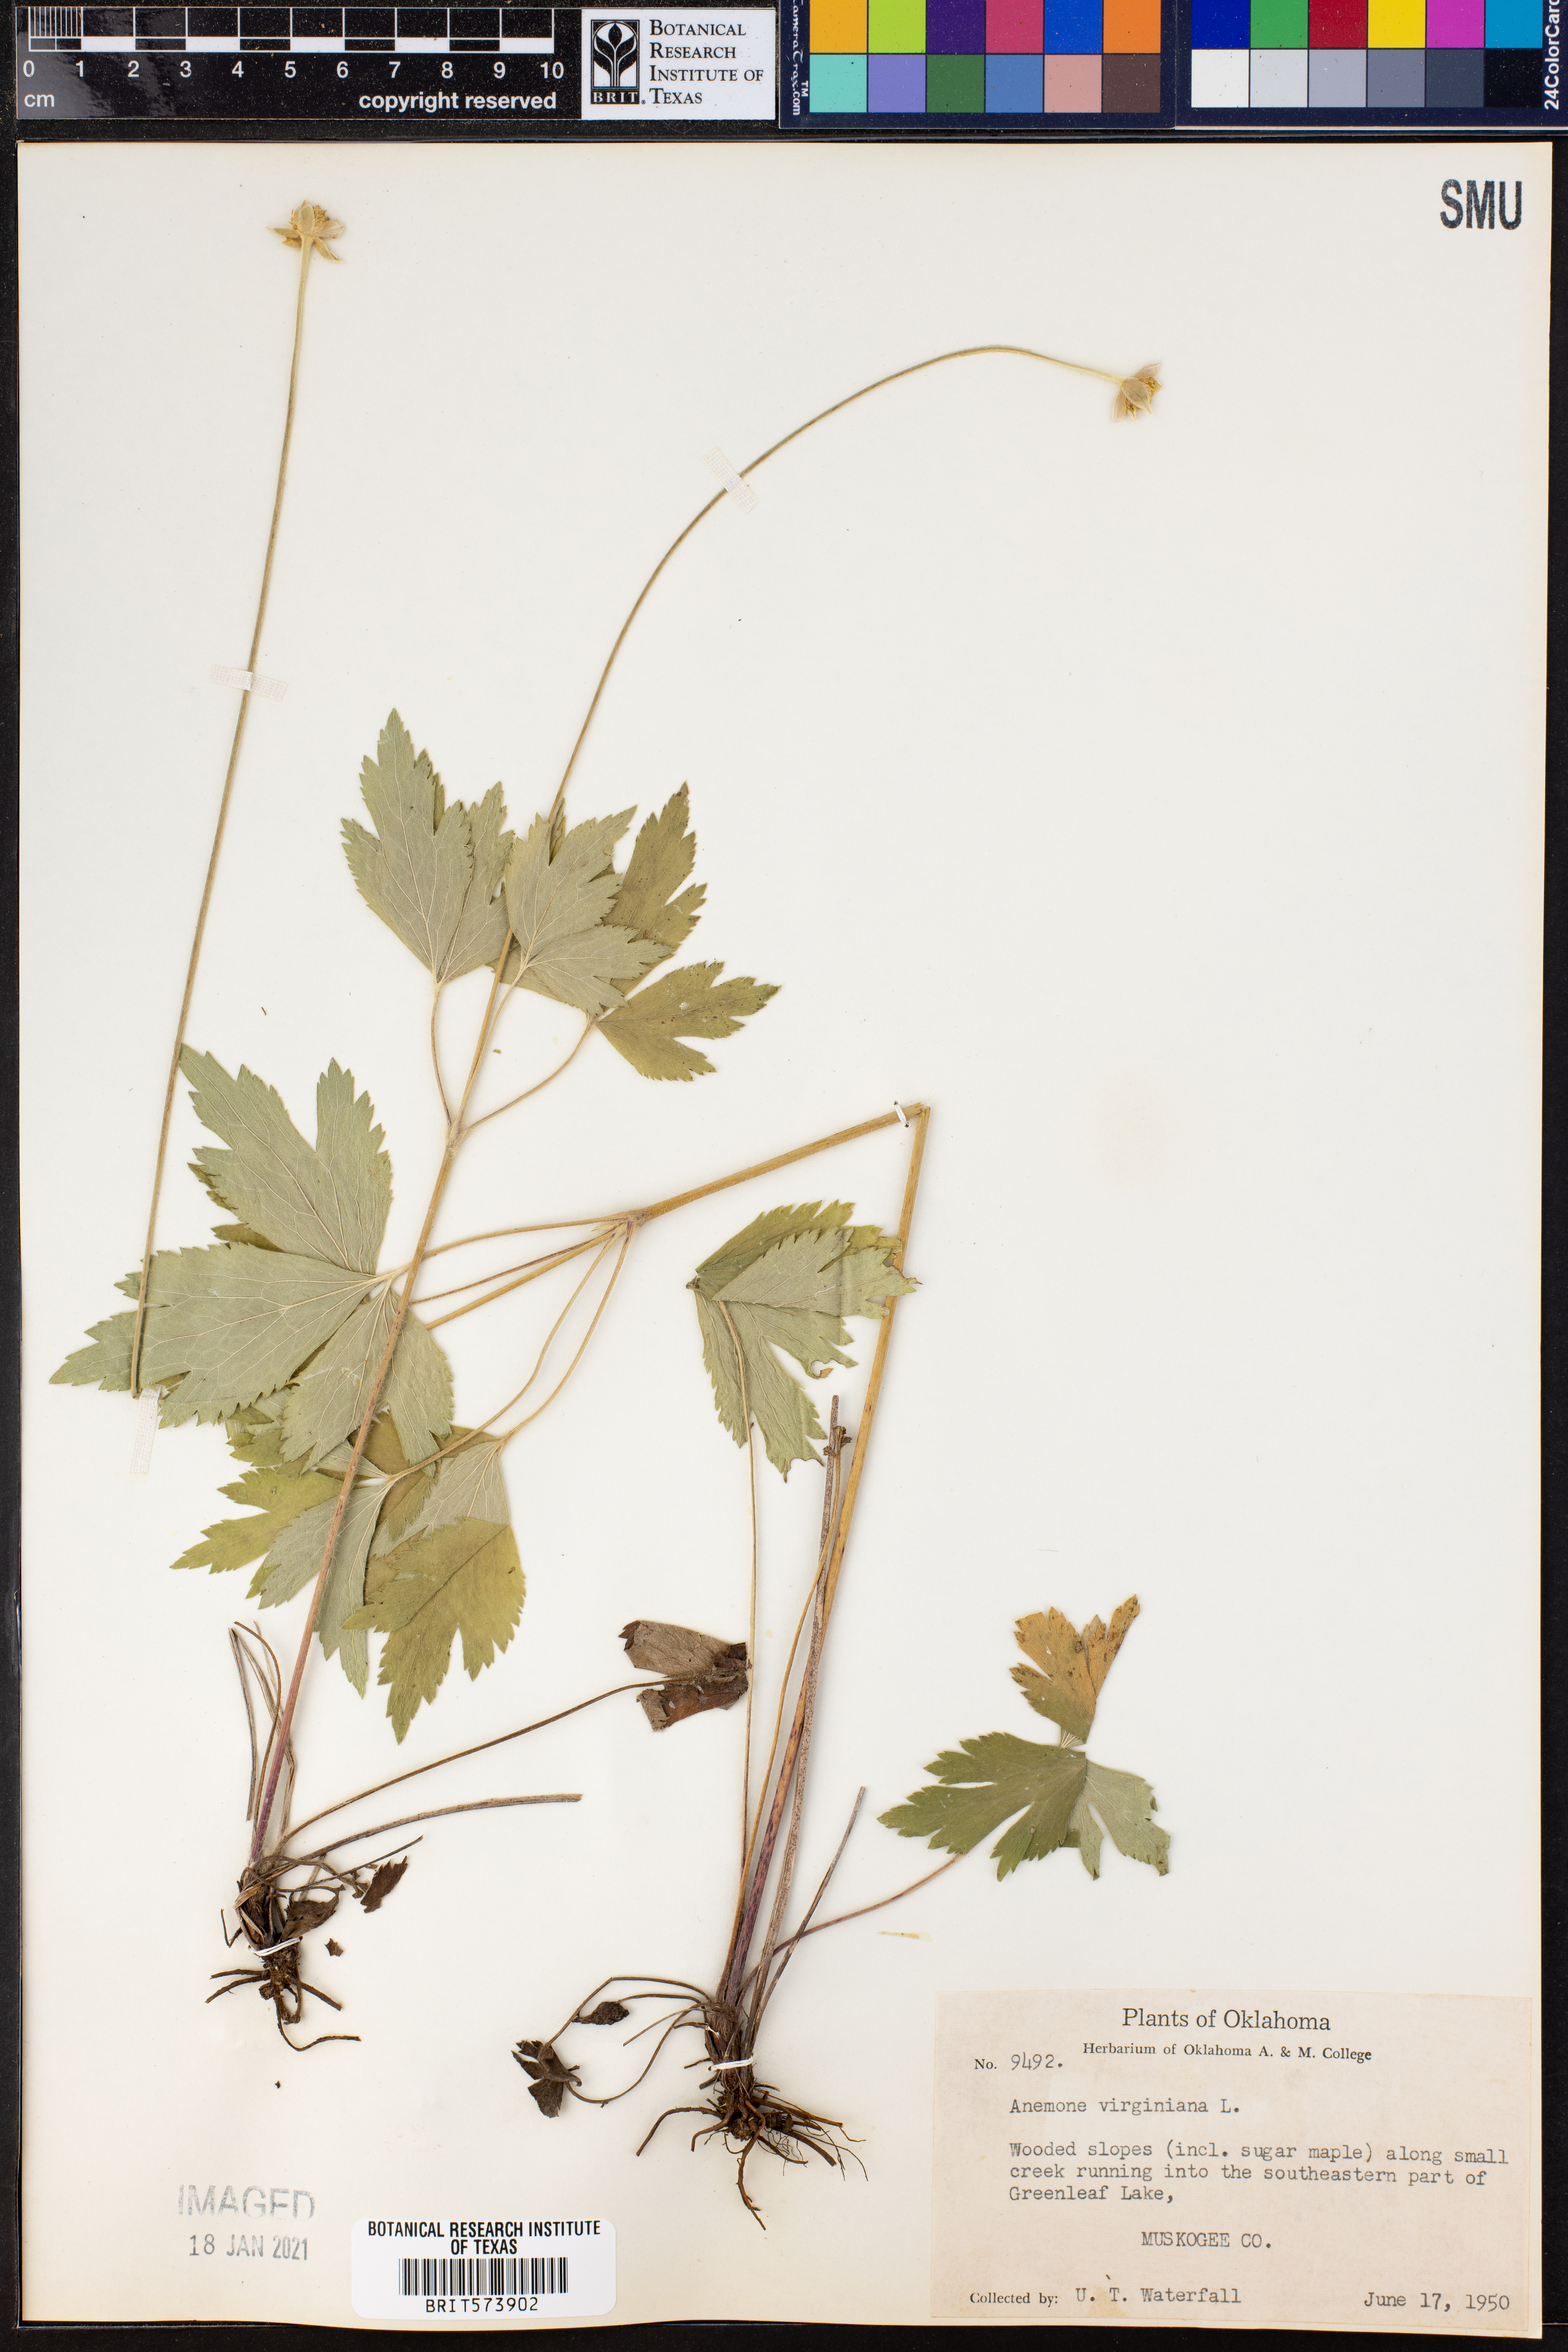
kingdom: Plantae
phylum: Tracheophyta
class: Magnoliopsida
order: Ranunculales
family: Ranunculaceae
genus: Anemone
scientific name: Anemone virginiana
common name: Tall anemone
